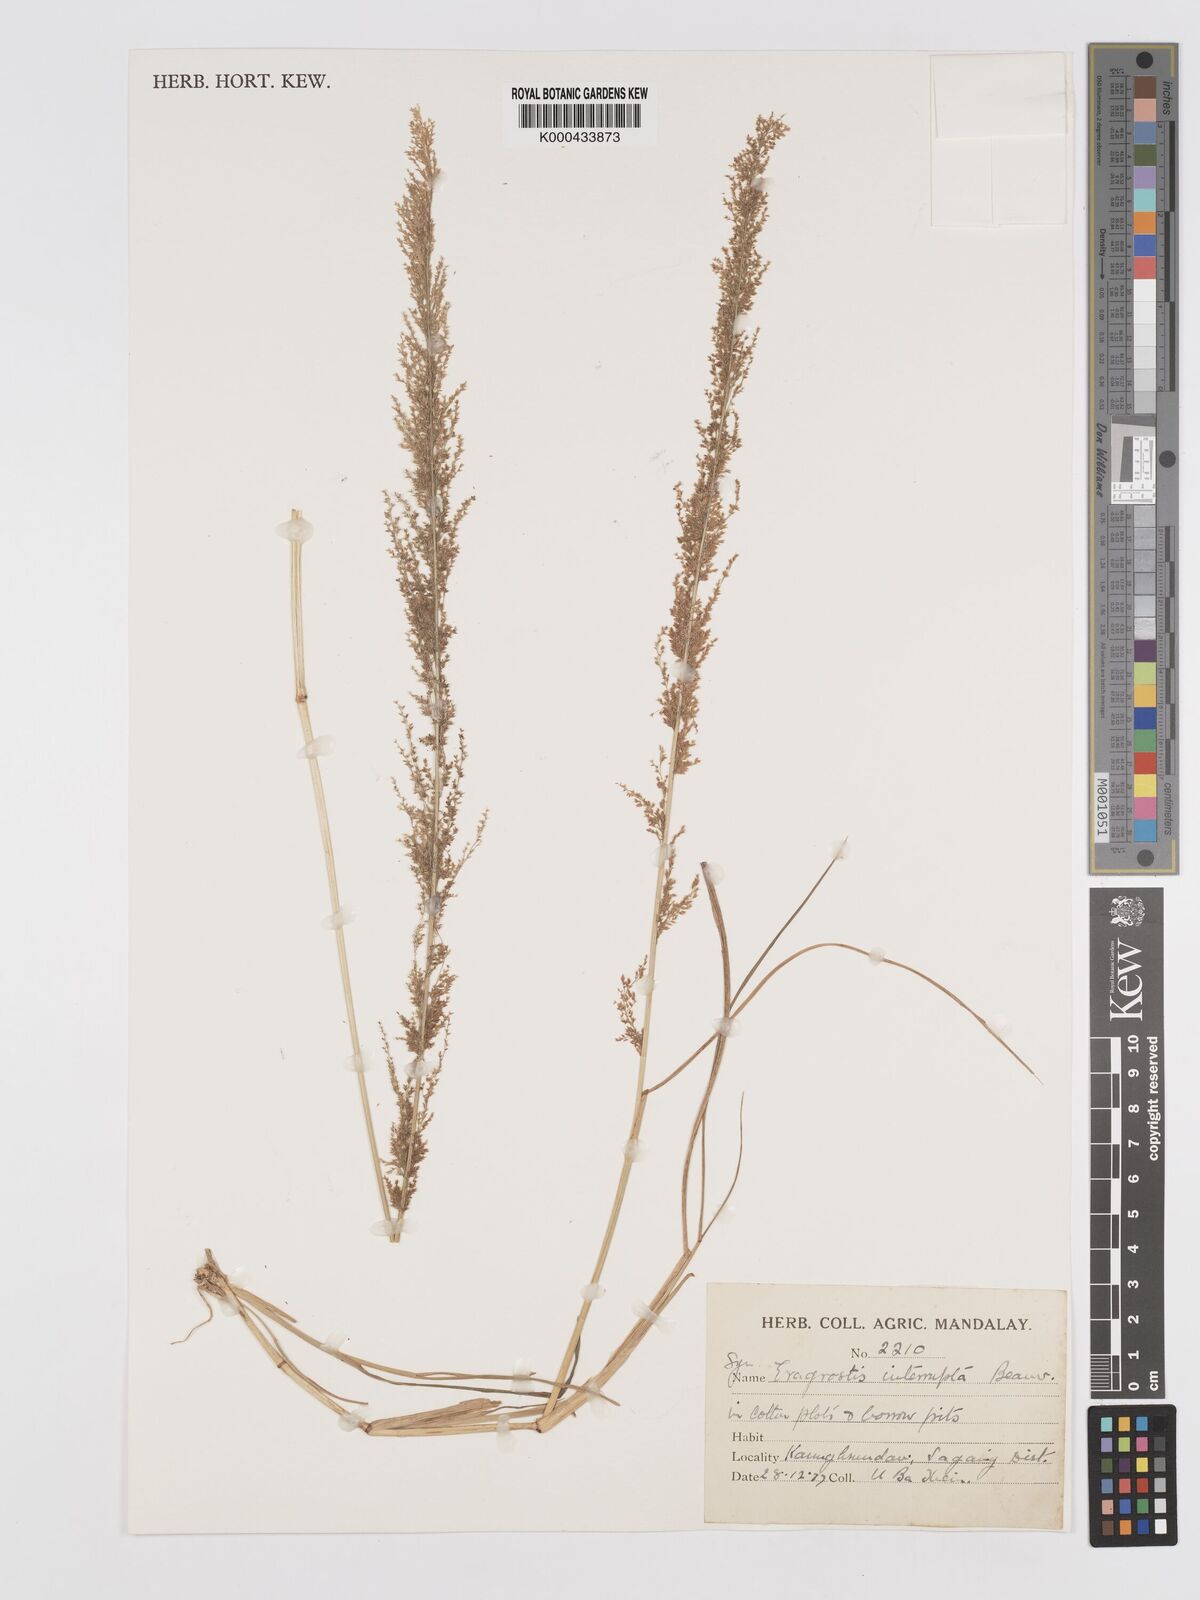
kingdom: Plantae
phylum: Tracheophyta
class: Liliopsida
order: Poales
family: Poaceae
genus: Eragrostis
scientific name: Eragrostis coarctata
